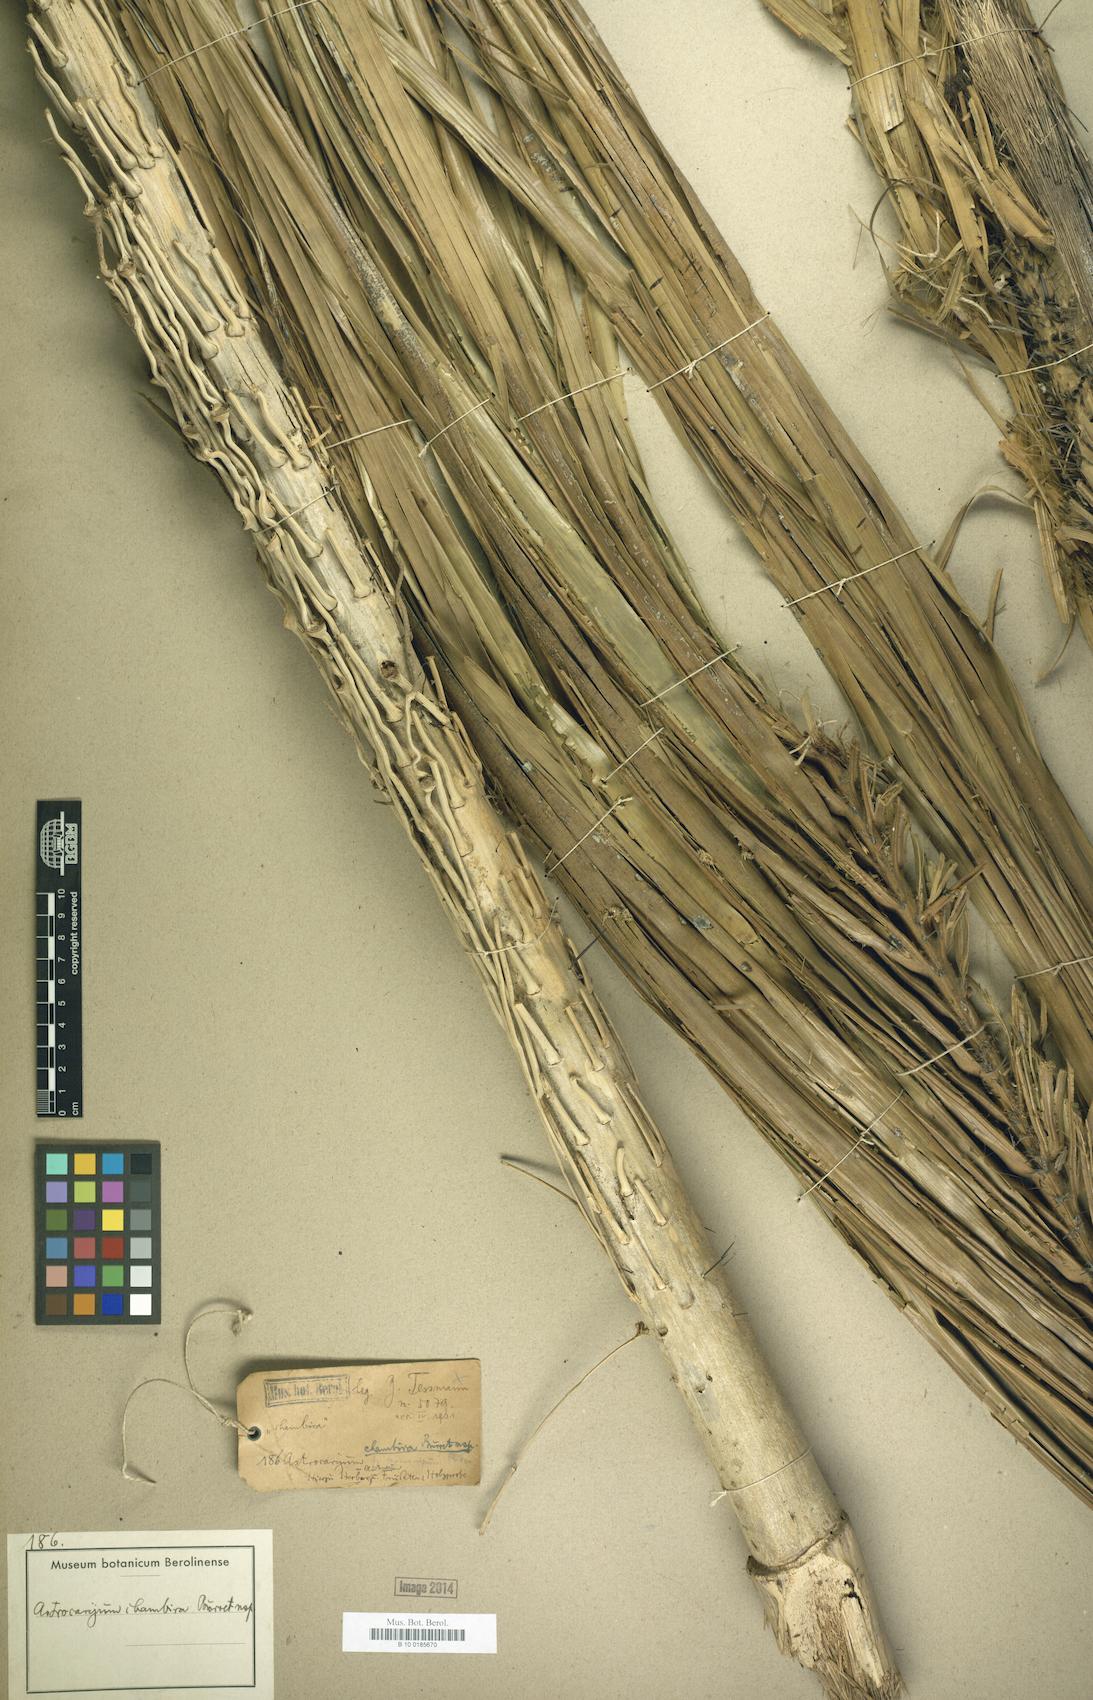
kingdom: Plantae
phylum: Tracheophyta
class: Liliopsida
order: Arecales
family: Arecaceae
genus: Astrocaryum
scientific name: Astrocaryum chambira
